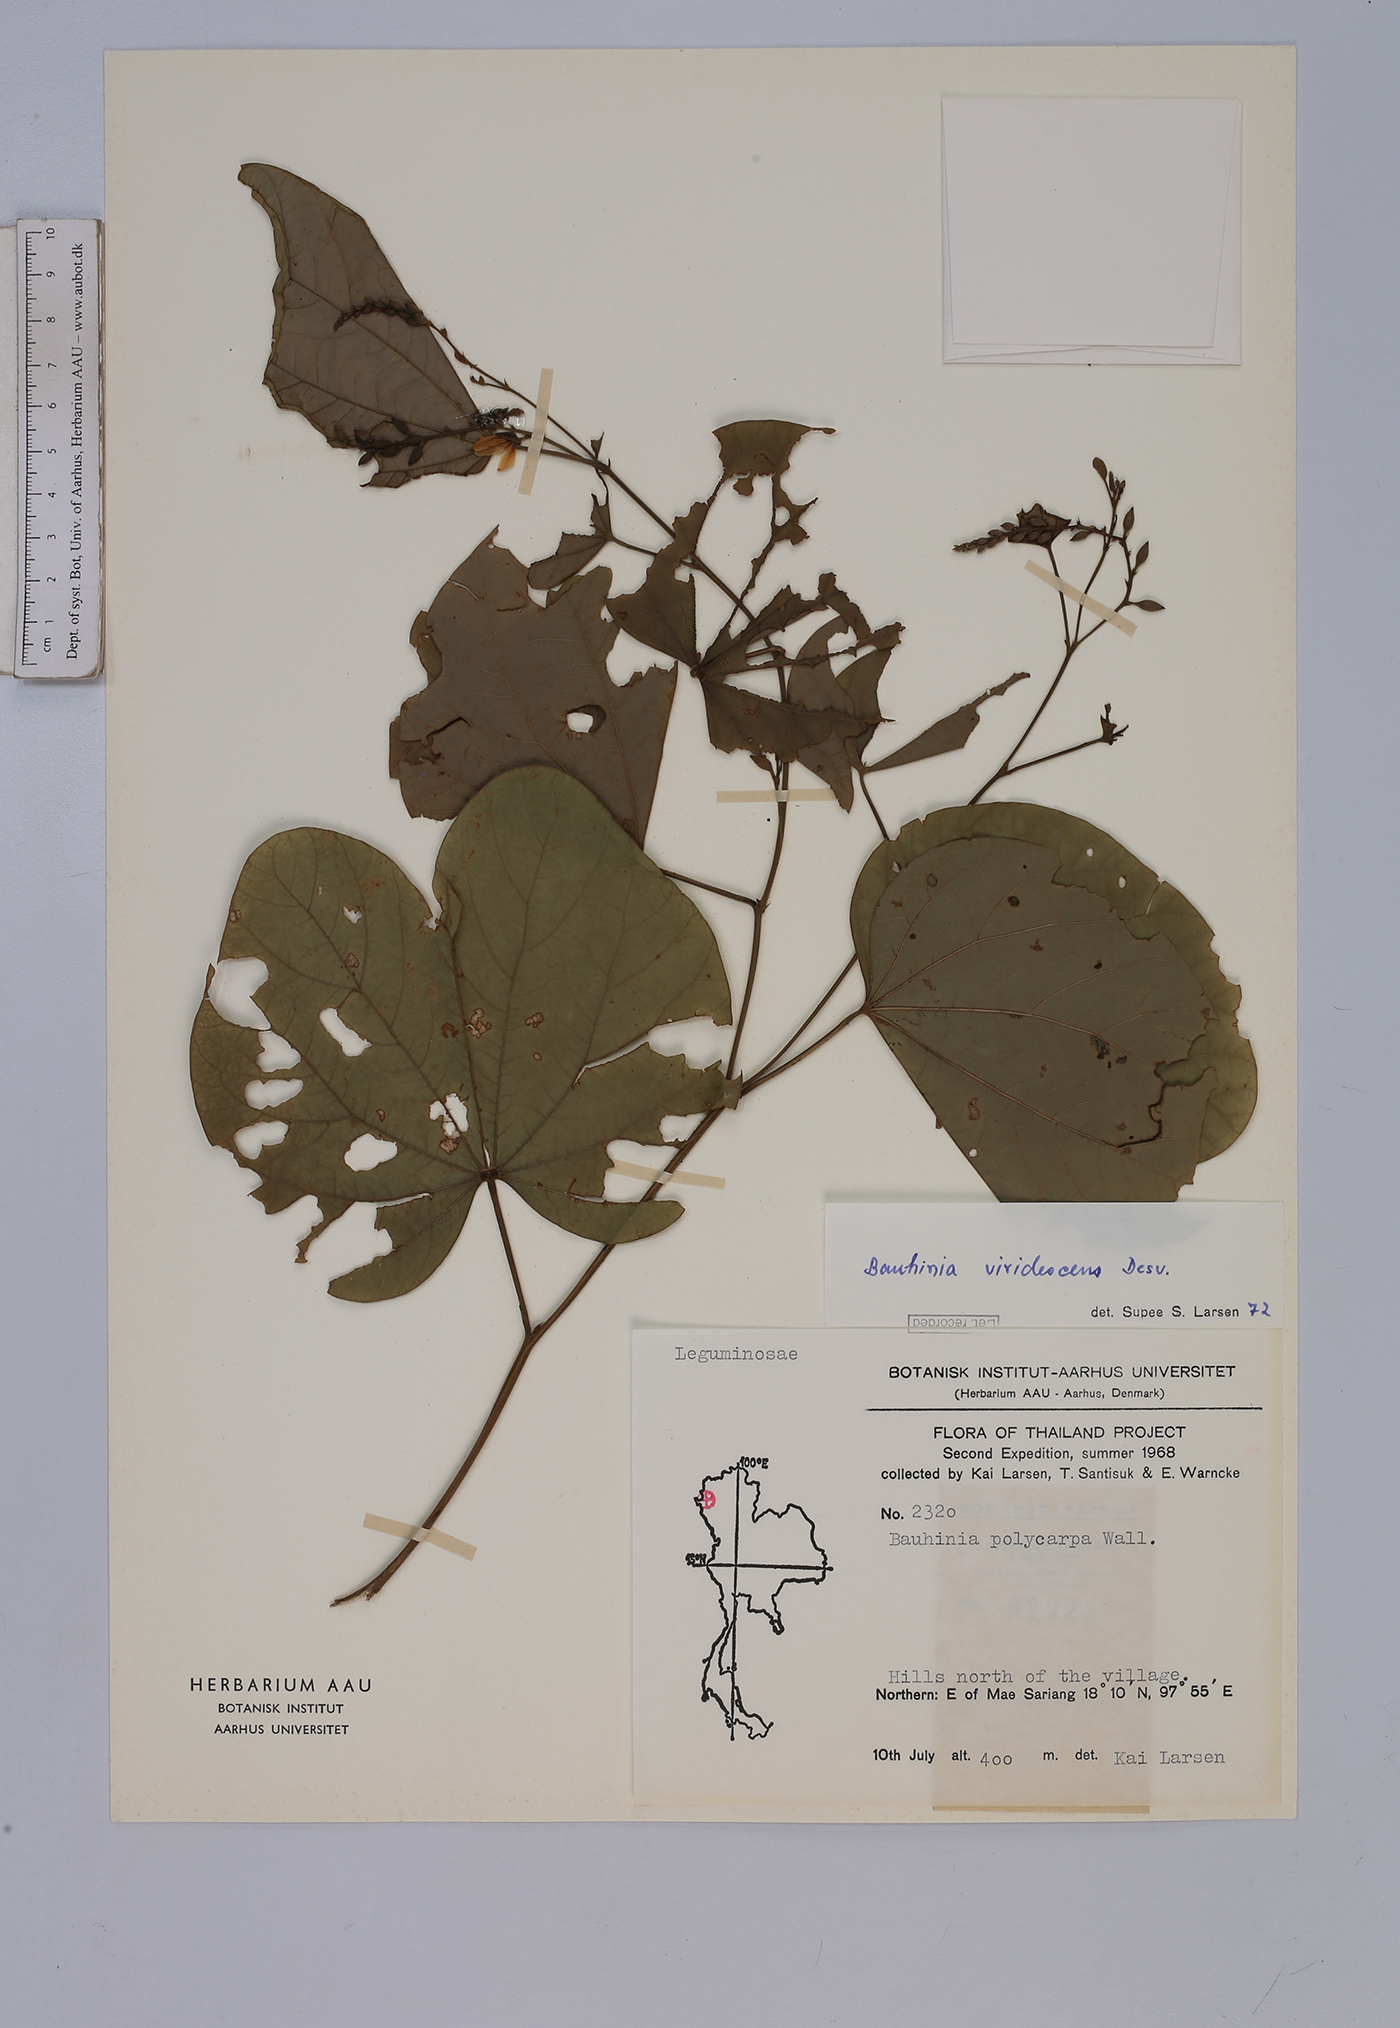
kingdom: Plantae
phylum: Tracheophyta
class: Magnoliopsida
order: Fabales
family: Fabaceae
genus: Bauhinia
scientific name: Bauhinia viridescens
